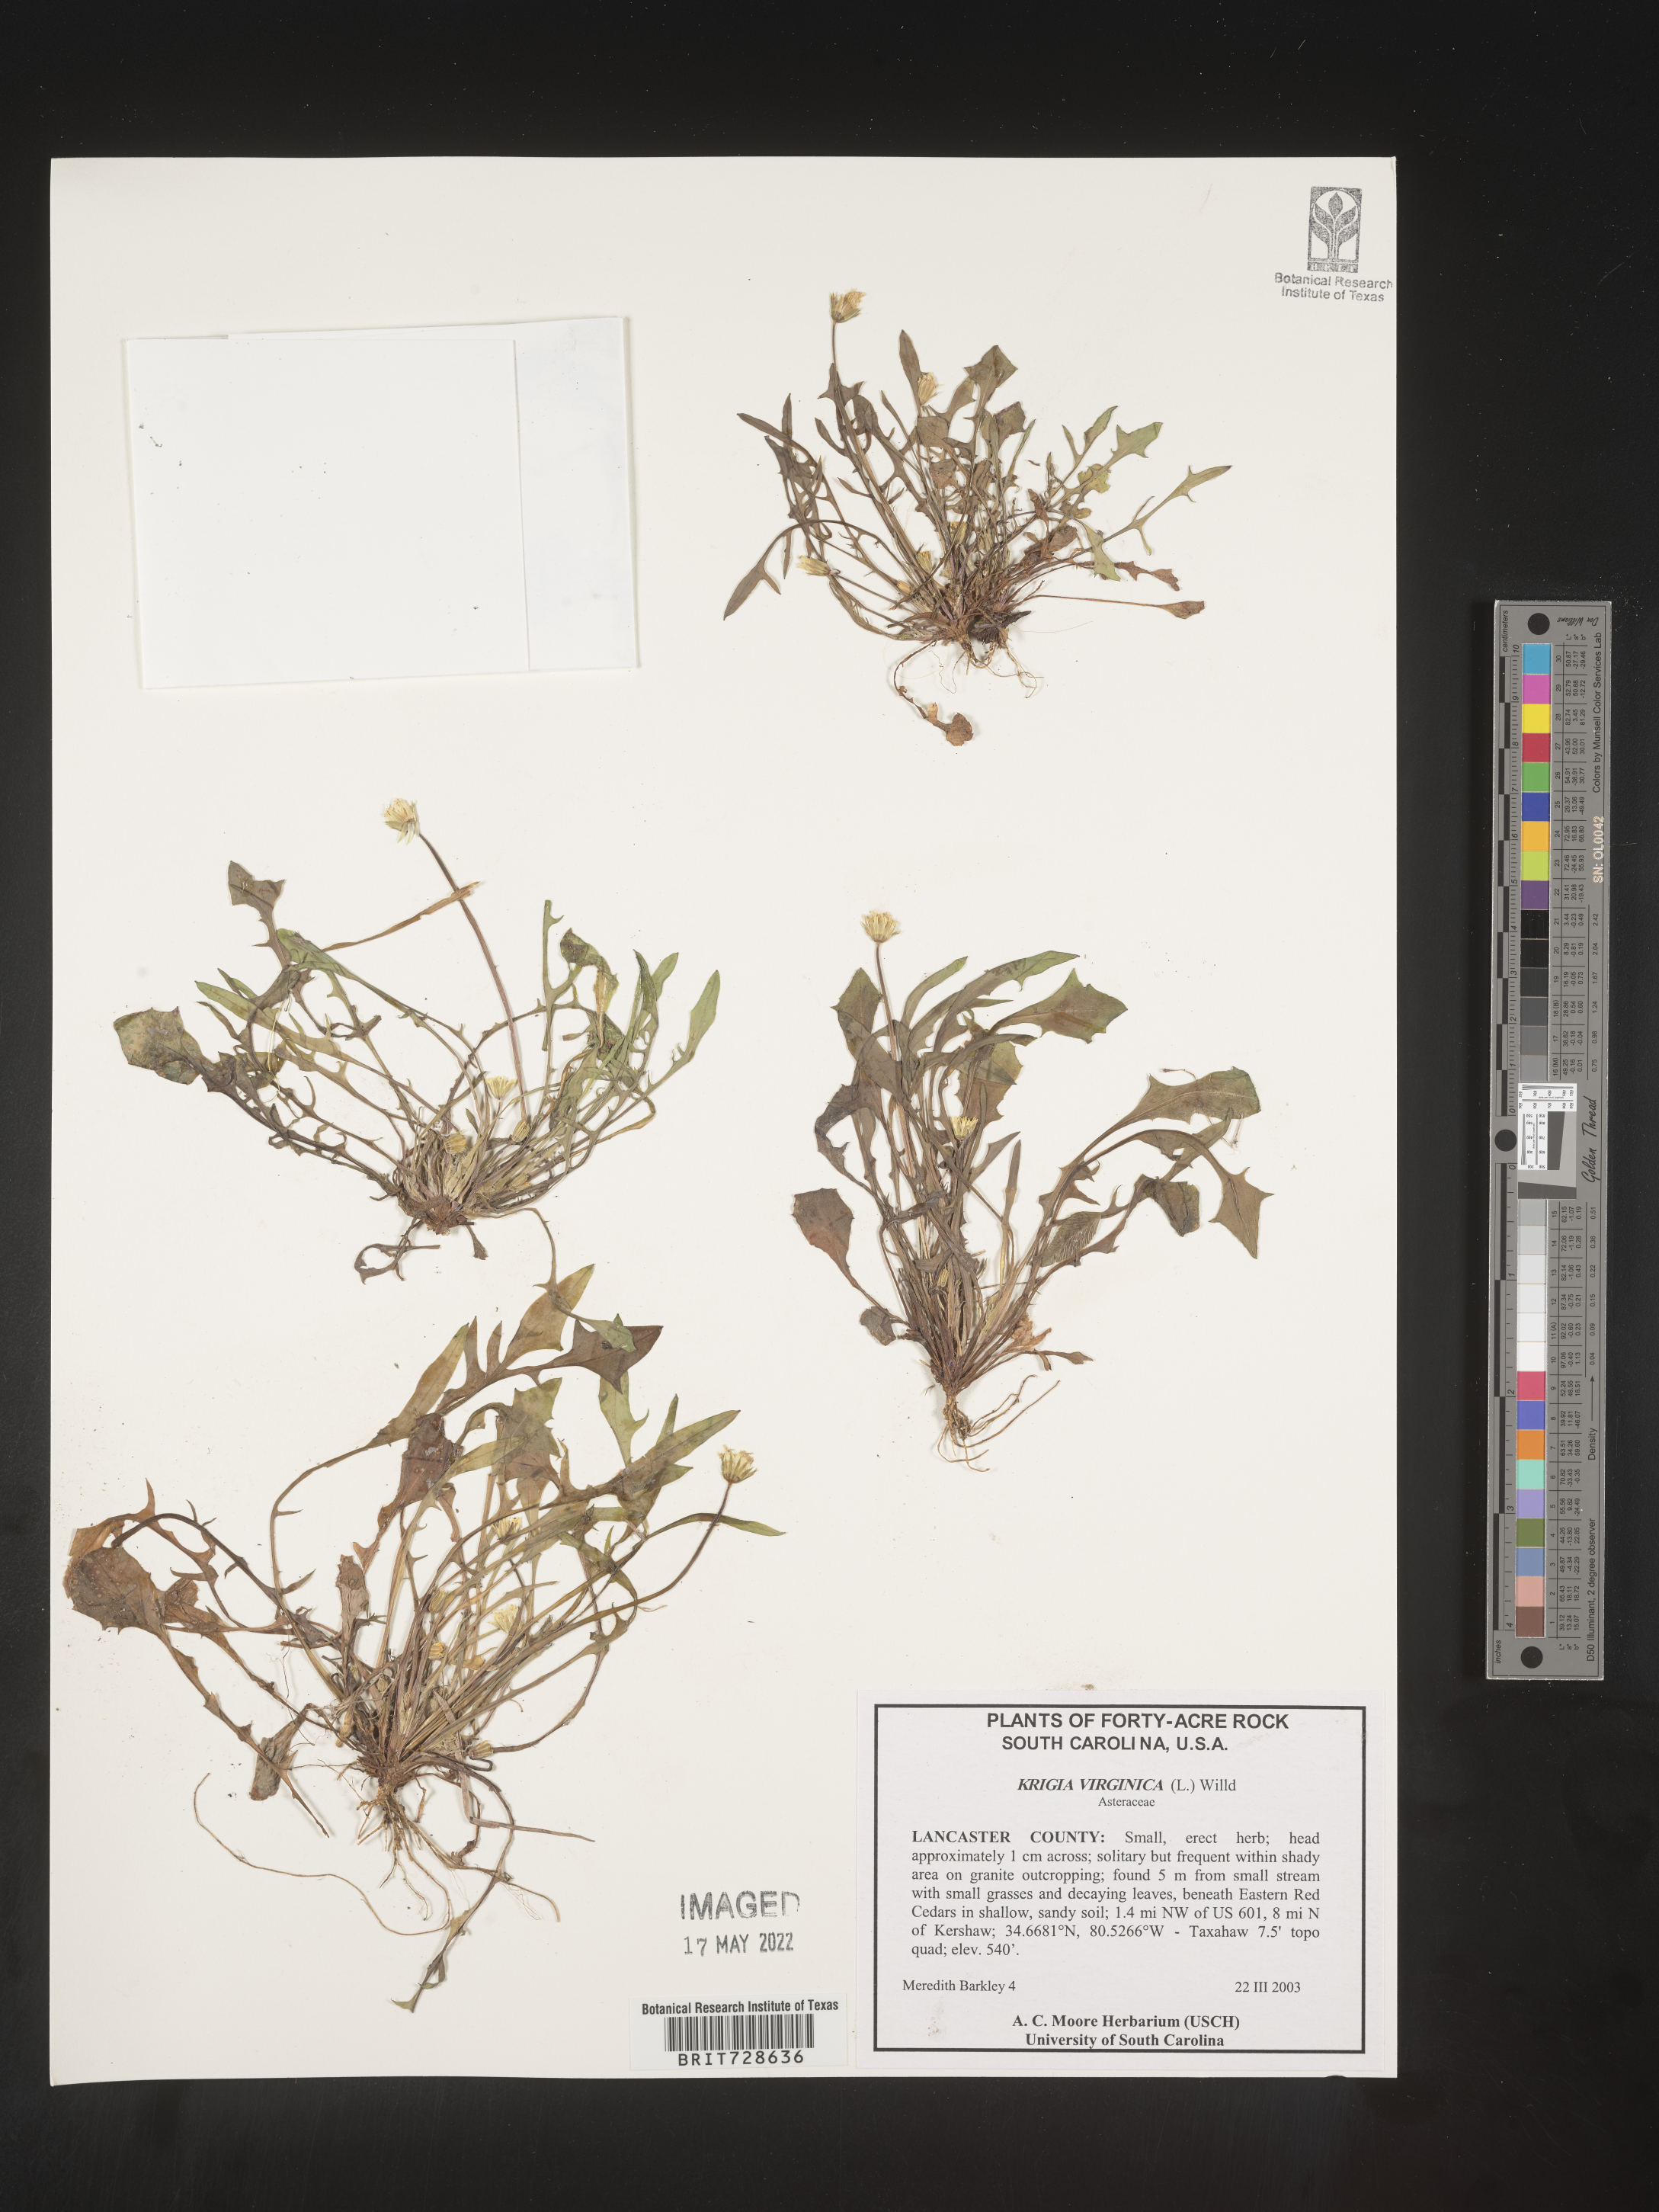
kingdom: Plantae
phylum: Tracheophyta
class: Magnoliopsida
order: Asterales
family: Asteraceae
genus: Krigia
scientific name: Krigia virginica
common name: Virginia dwarf-dandelion
